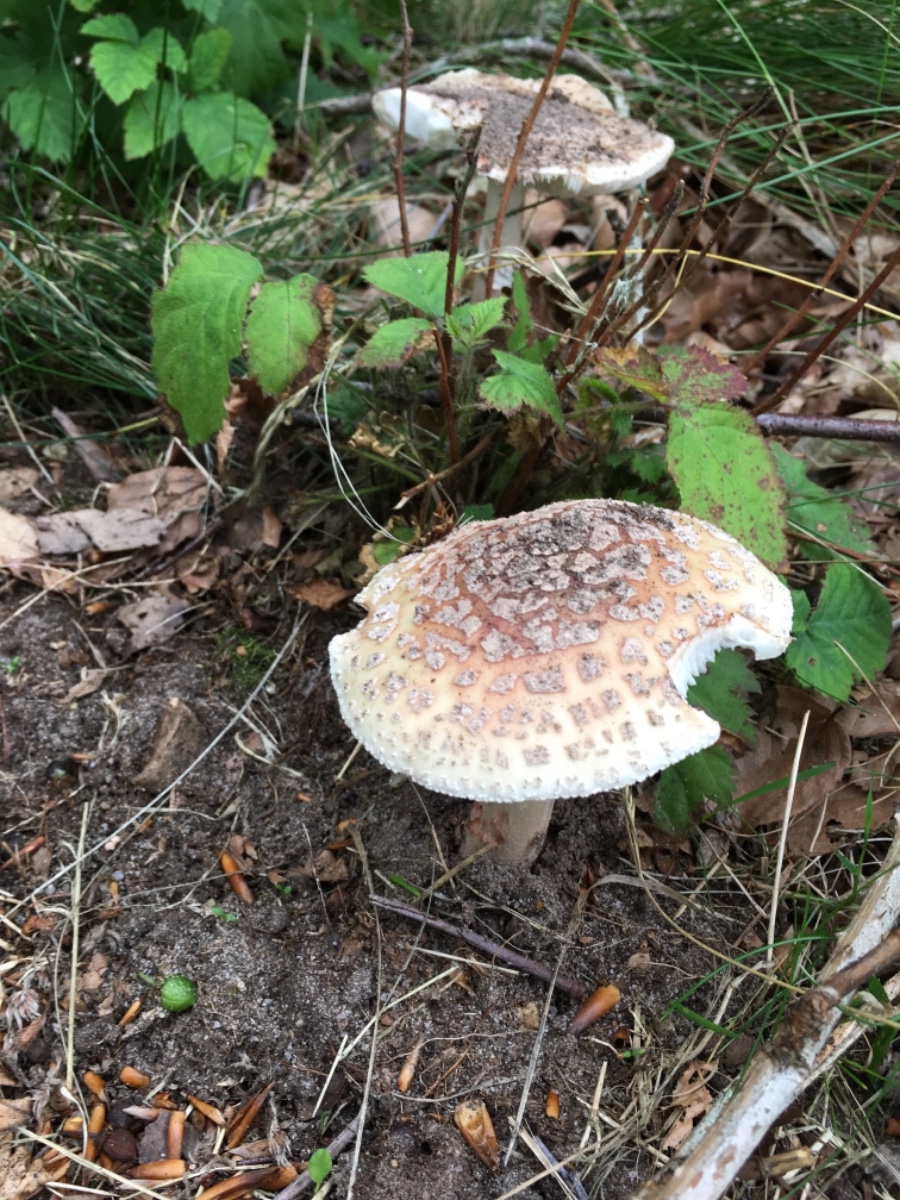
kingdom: Fungi
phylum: Basidiomycota
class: Agaricomycetes
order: Agaricales
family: Amanitaceae
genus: Amanita
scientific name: Amanita rubescens
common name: rødmende fluesvamp
